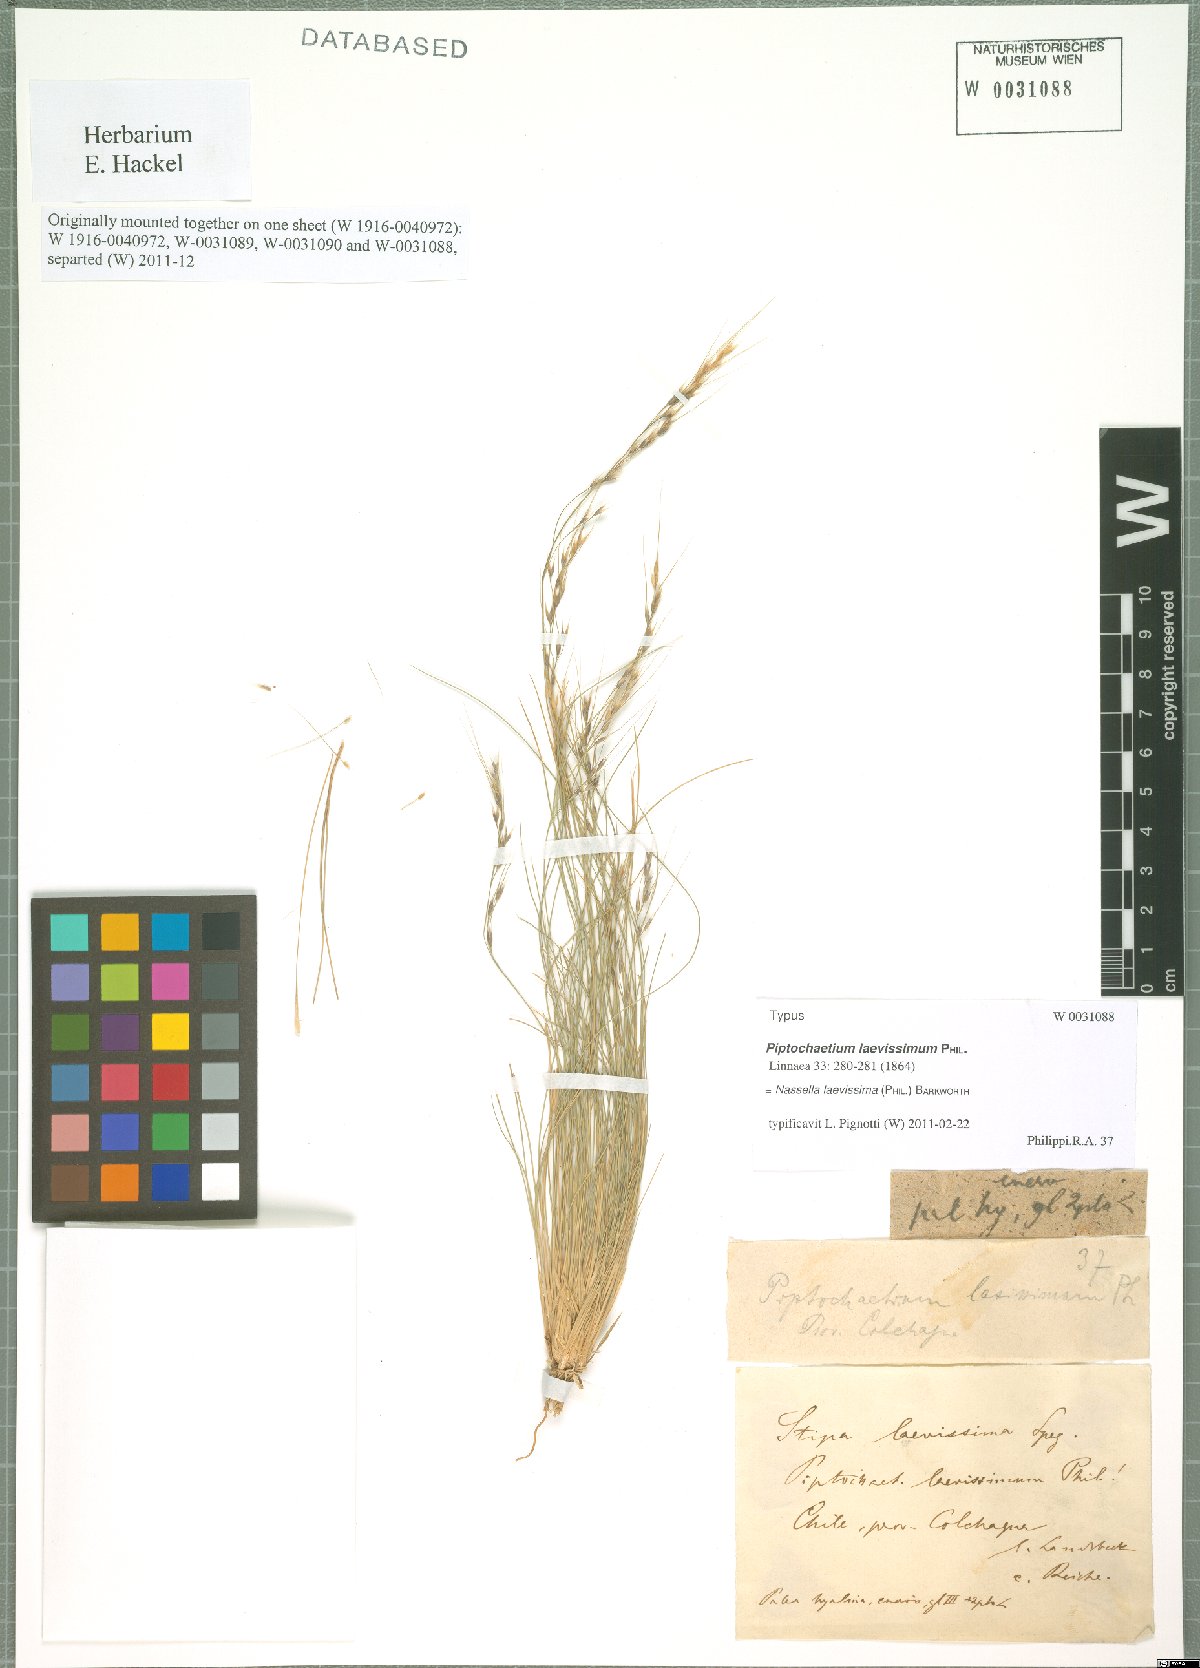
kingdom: Plantae
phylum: Tracheophyta
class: Liliopsida
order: Poales
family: Poaceae
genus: Nassella
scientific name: Nassella laevissima
